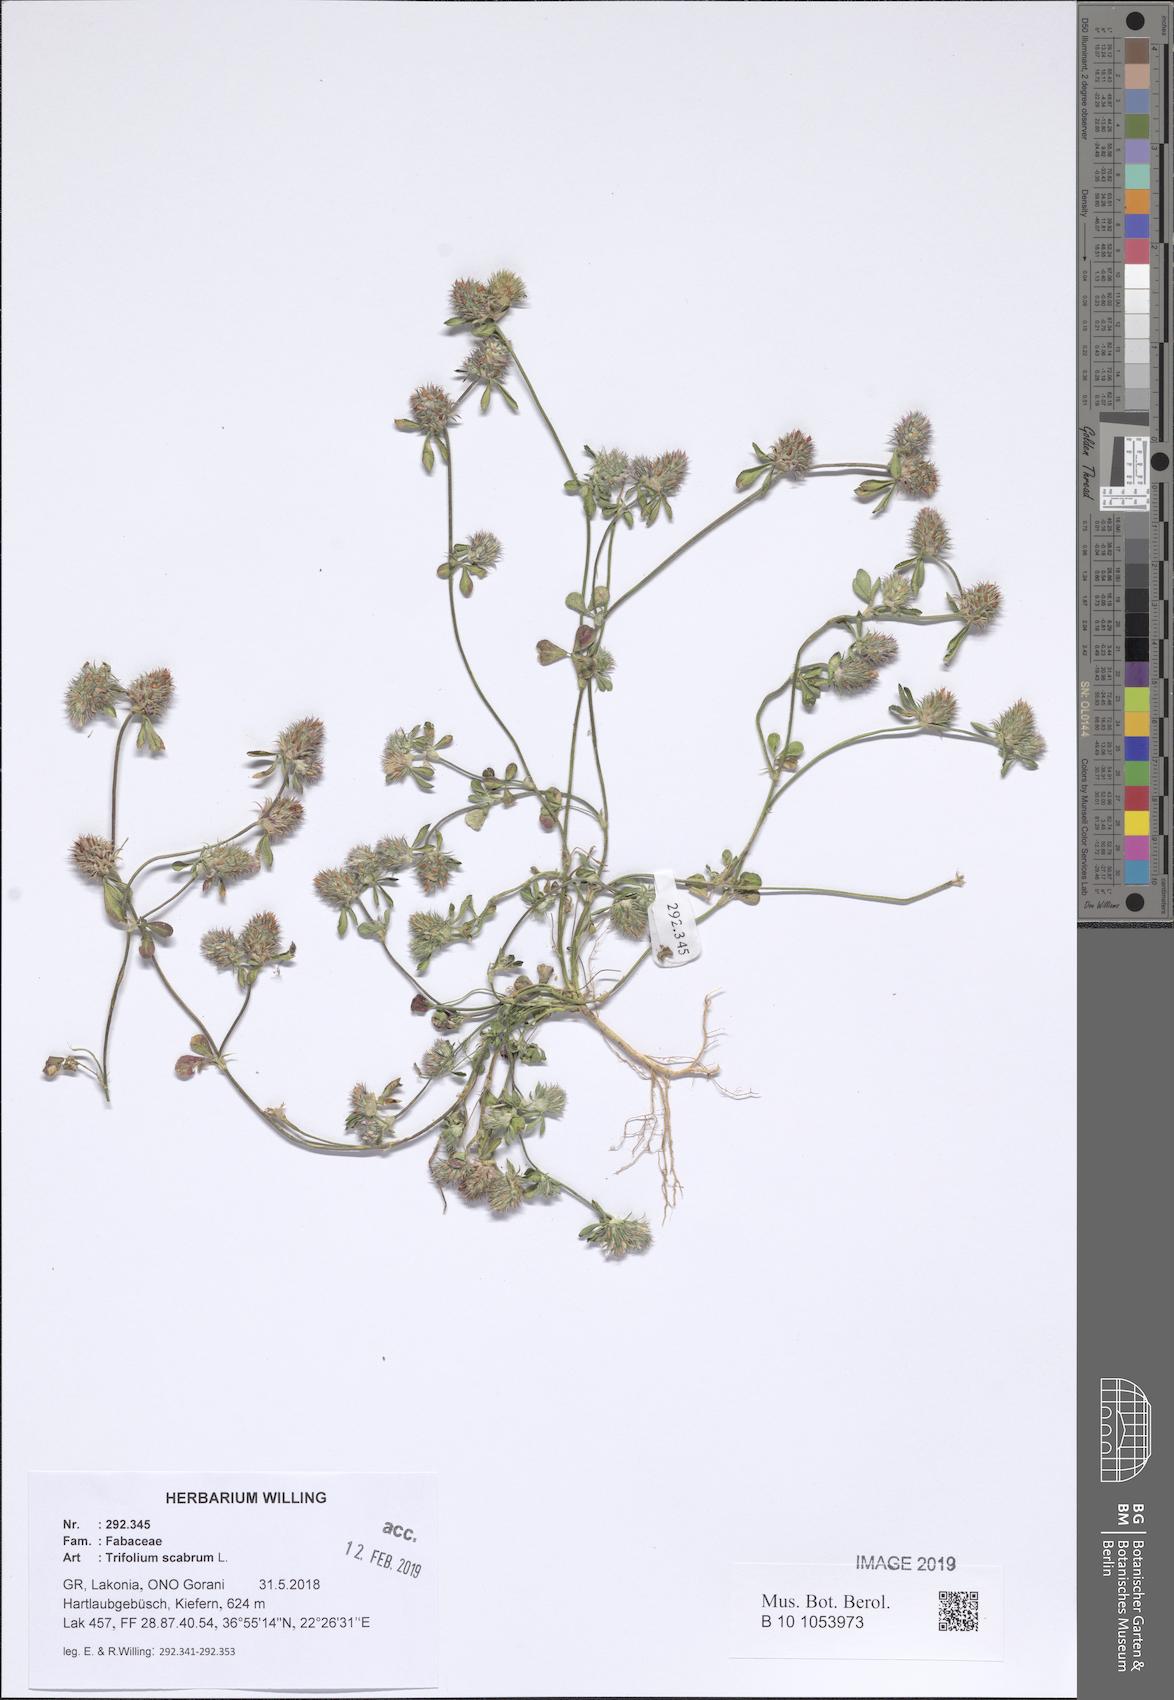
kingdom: Plantae
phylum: Tracheophyta
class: Magnoliopsida
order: Fabales
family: Fabaceae
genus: Trifolium
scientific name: Trifolium scabrum
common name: Rough clover
